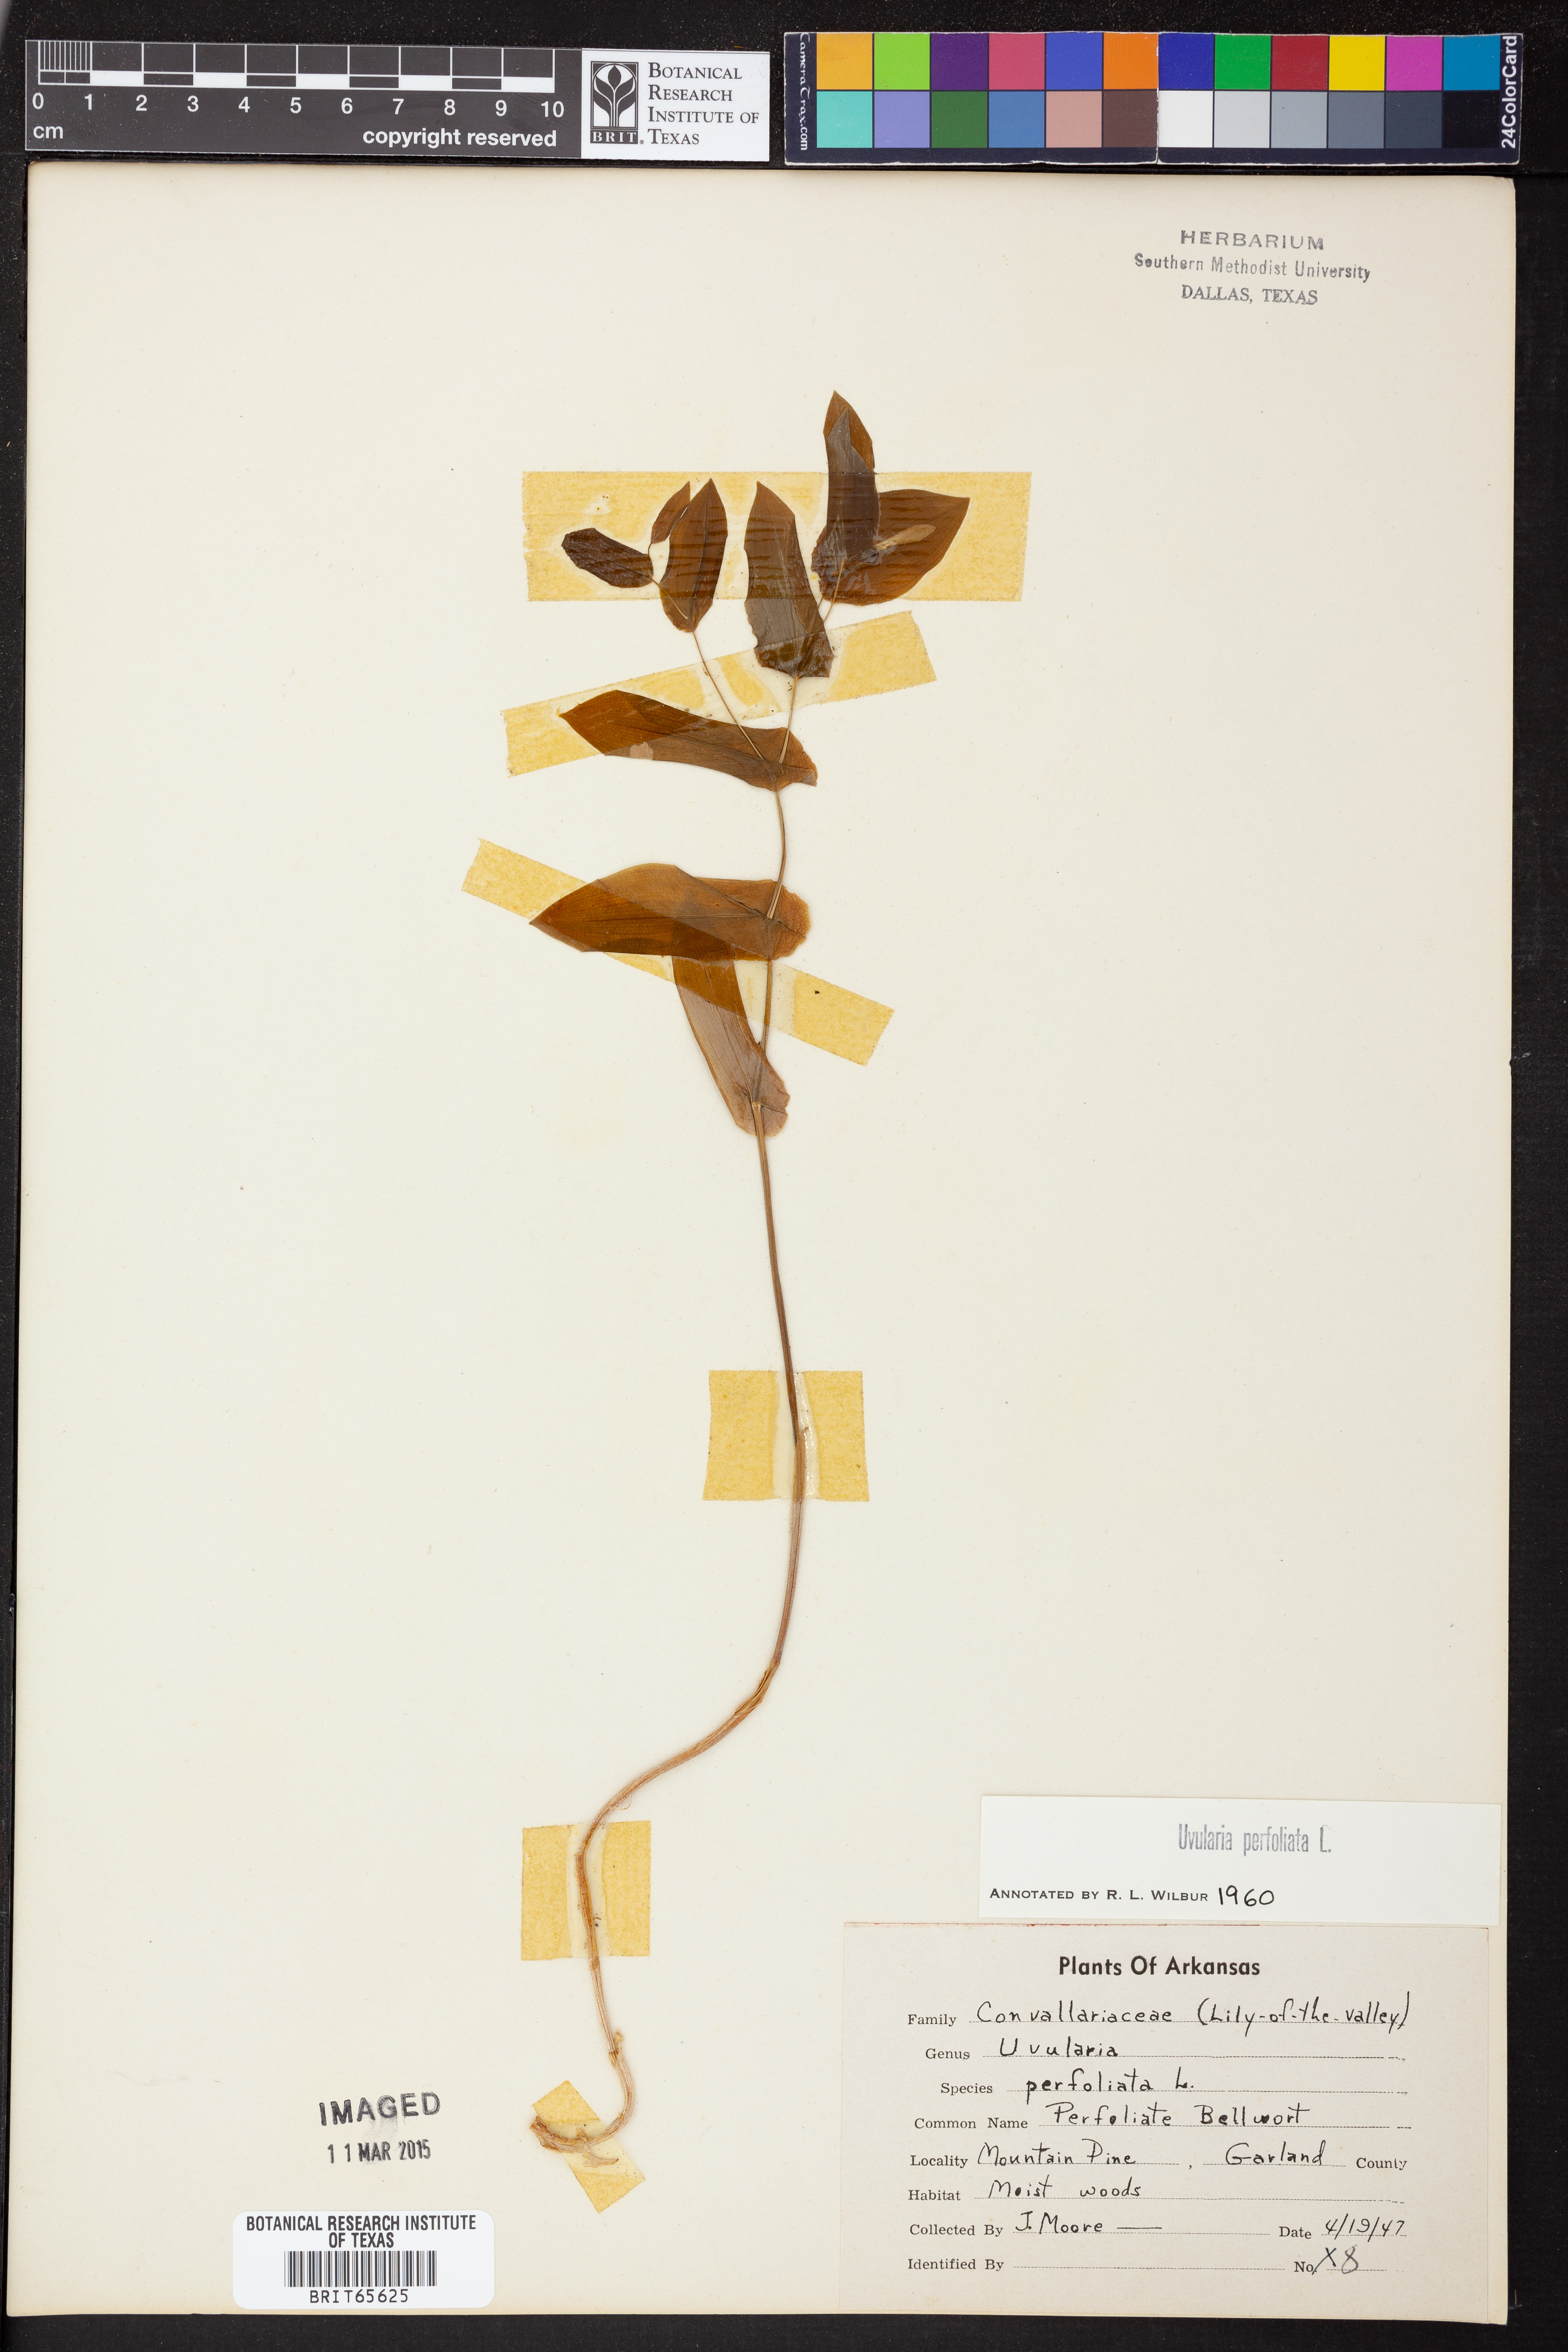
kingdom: Plantae
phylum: Tracheophyta
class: Liliopsida
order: Liliales
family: Colchicaceae
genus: Uvularia
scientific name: Uvularia perfoliata
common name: Perfoliate bellwort
